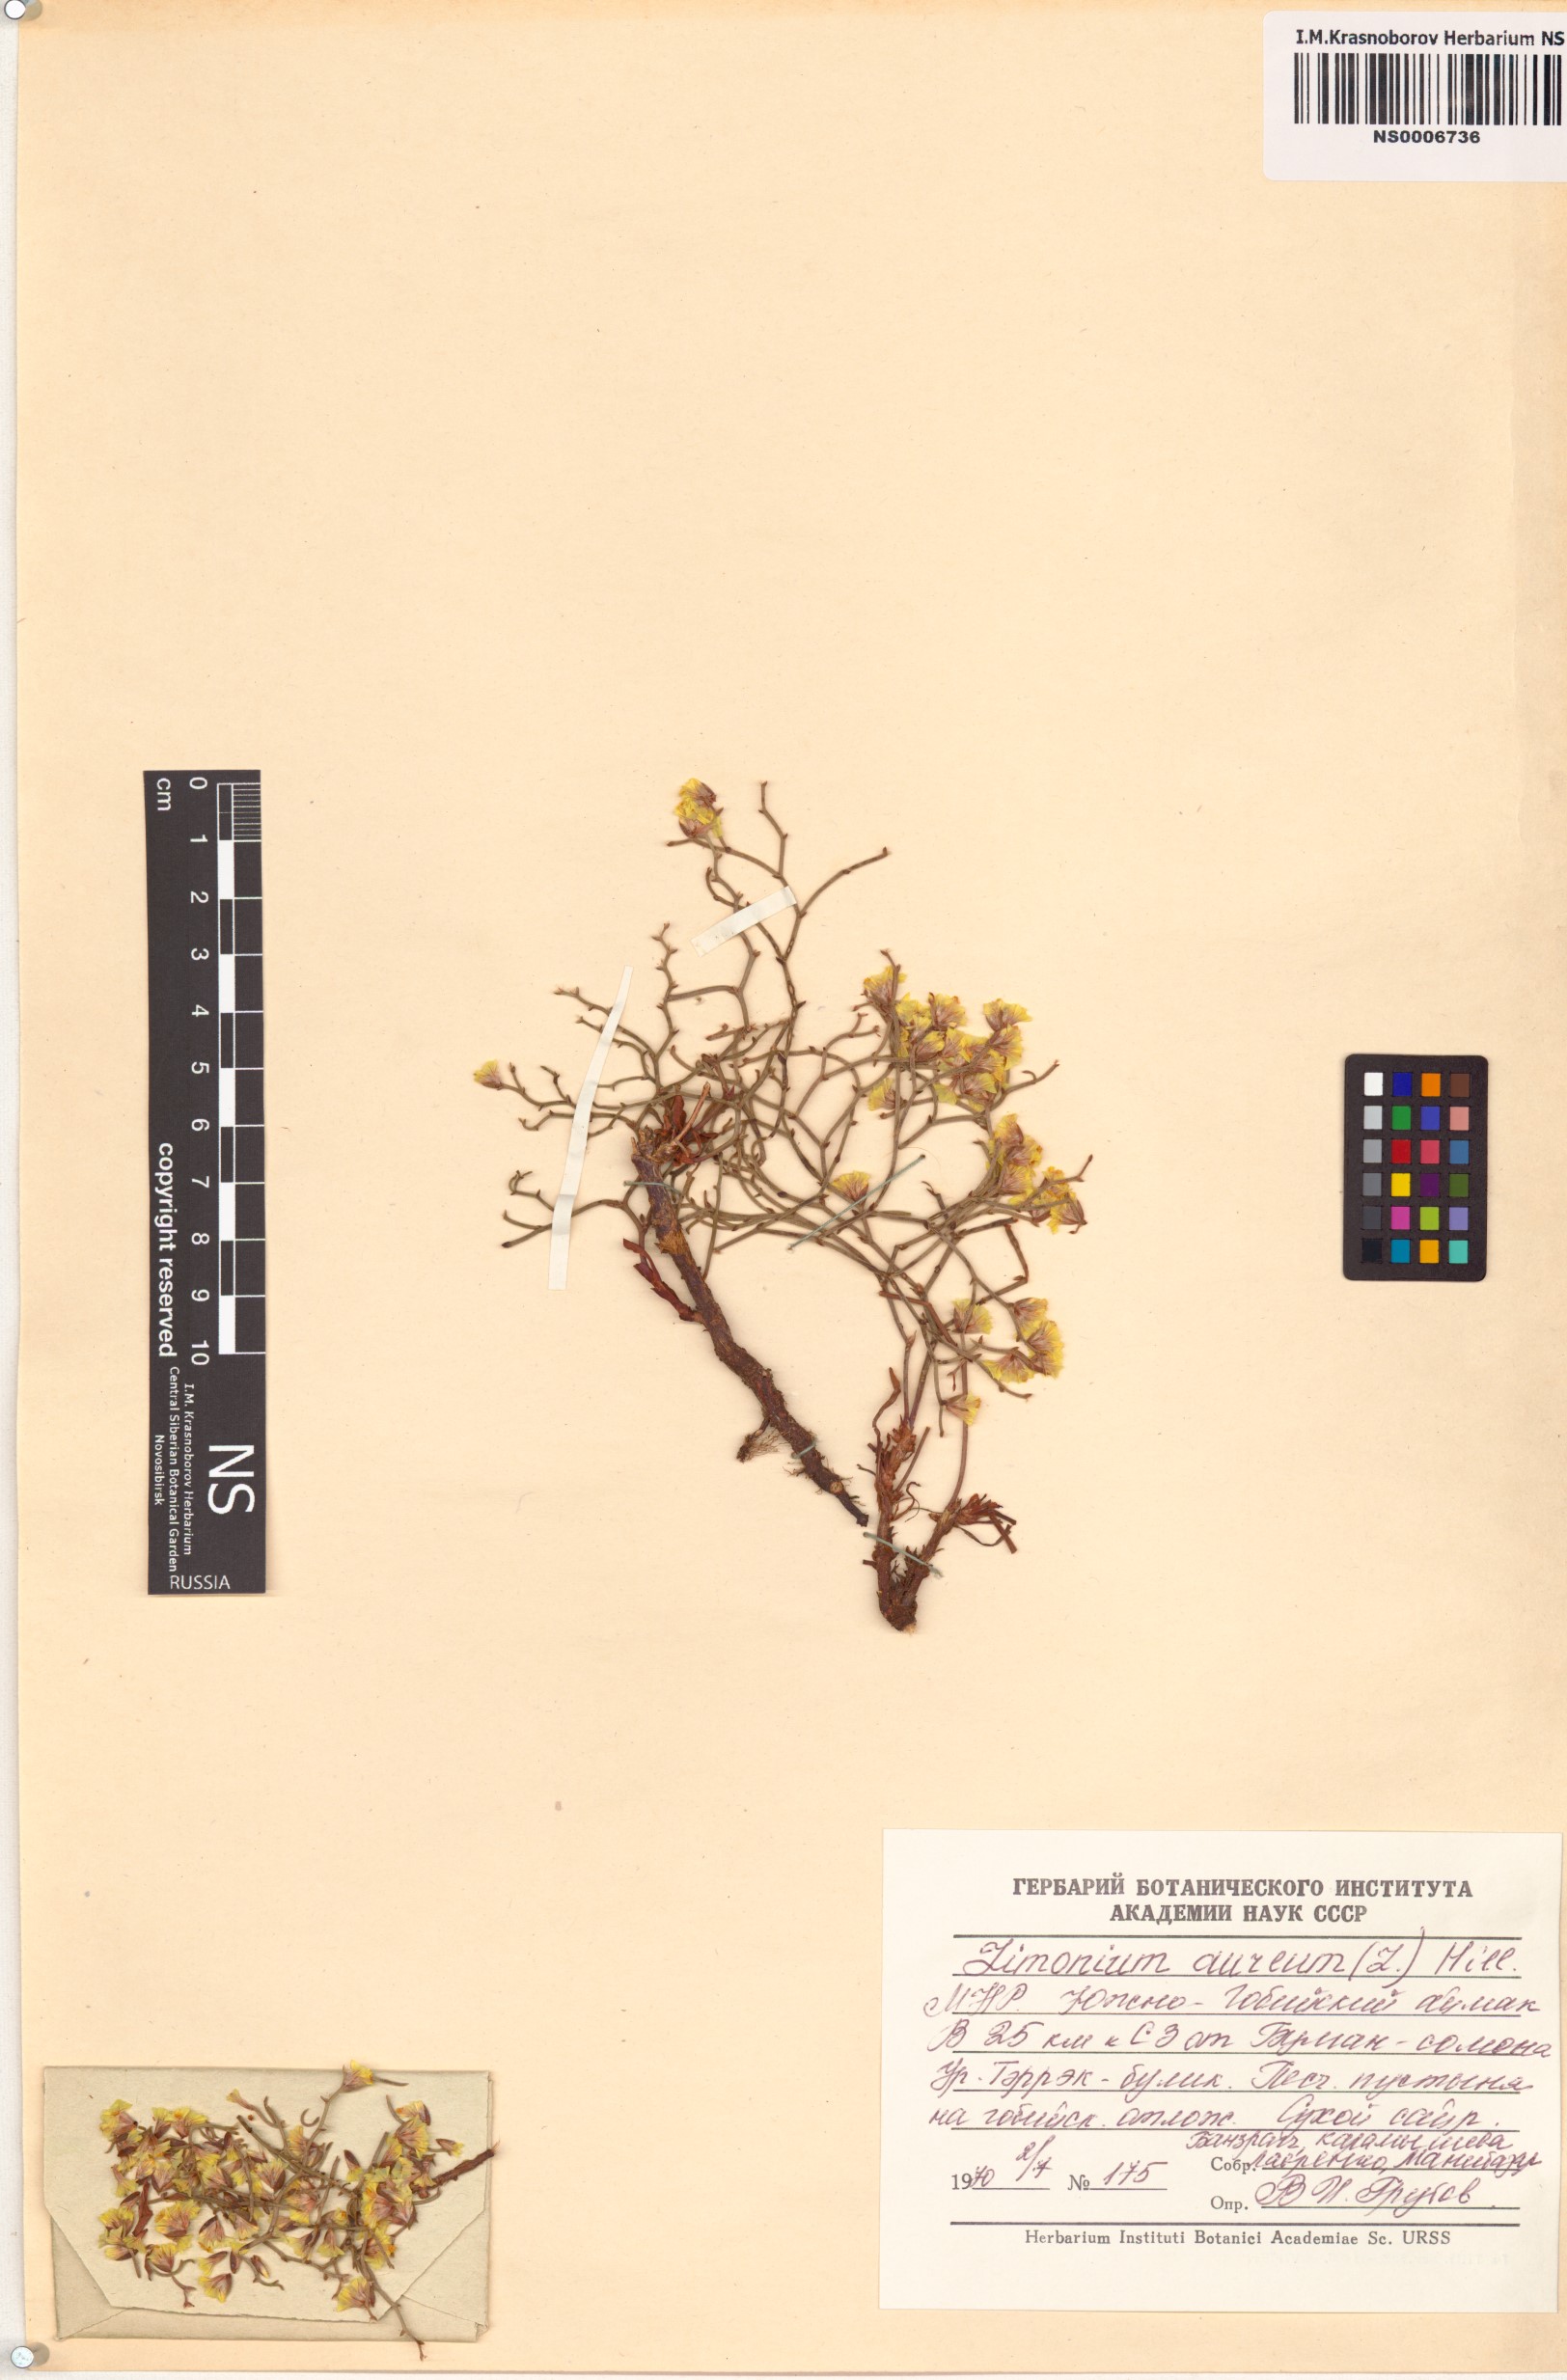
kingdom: Plantae
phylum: Tracheophyta
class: Magnoliopsida
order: Caryophyllales
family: Plumbaginaceae
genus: Limonium
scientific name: Limonium aureum
